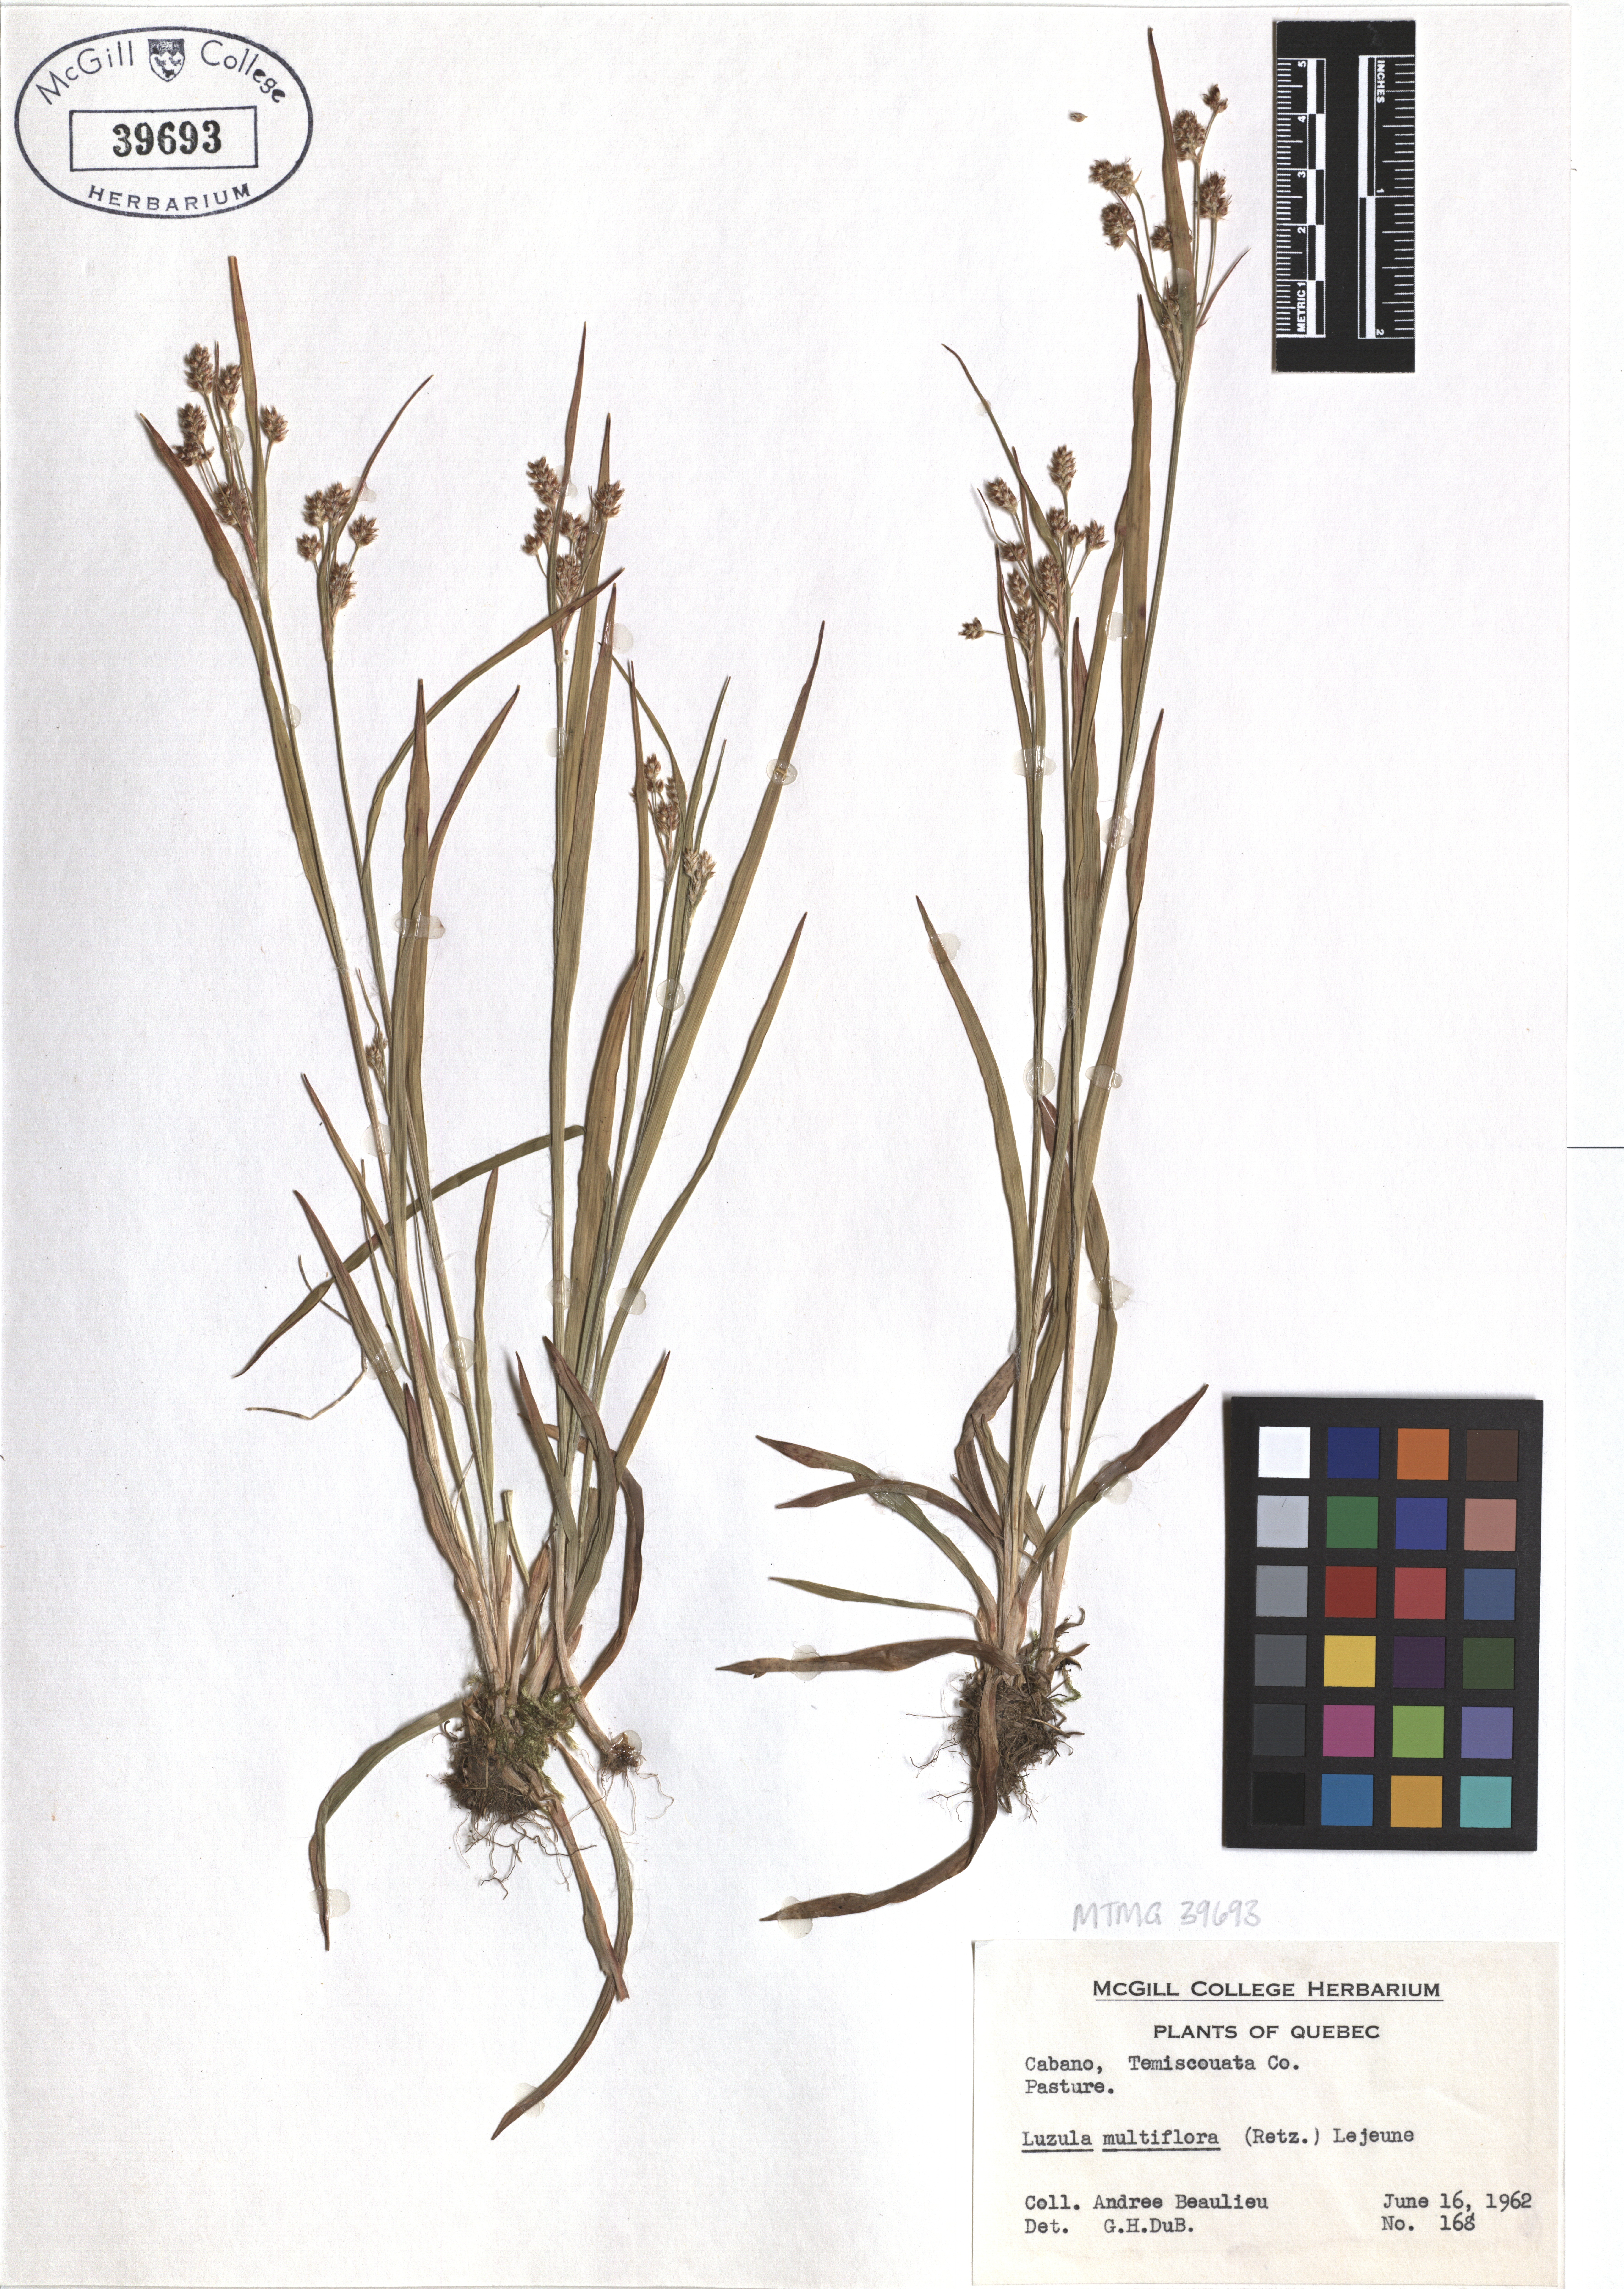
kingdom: Plantae
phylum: Tracheophyta
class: Liliopsida
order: Poales
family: Juncaceae
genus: Luzula
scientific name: Luzula multiflora
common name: Heath wood-rush
